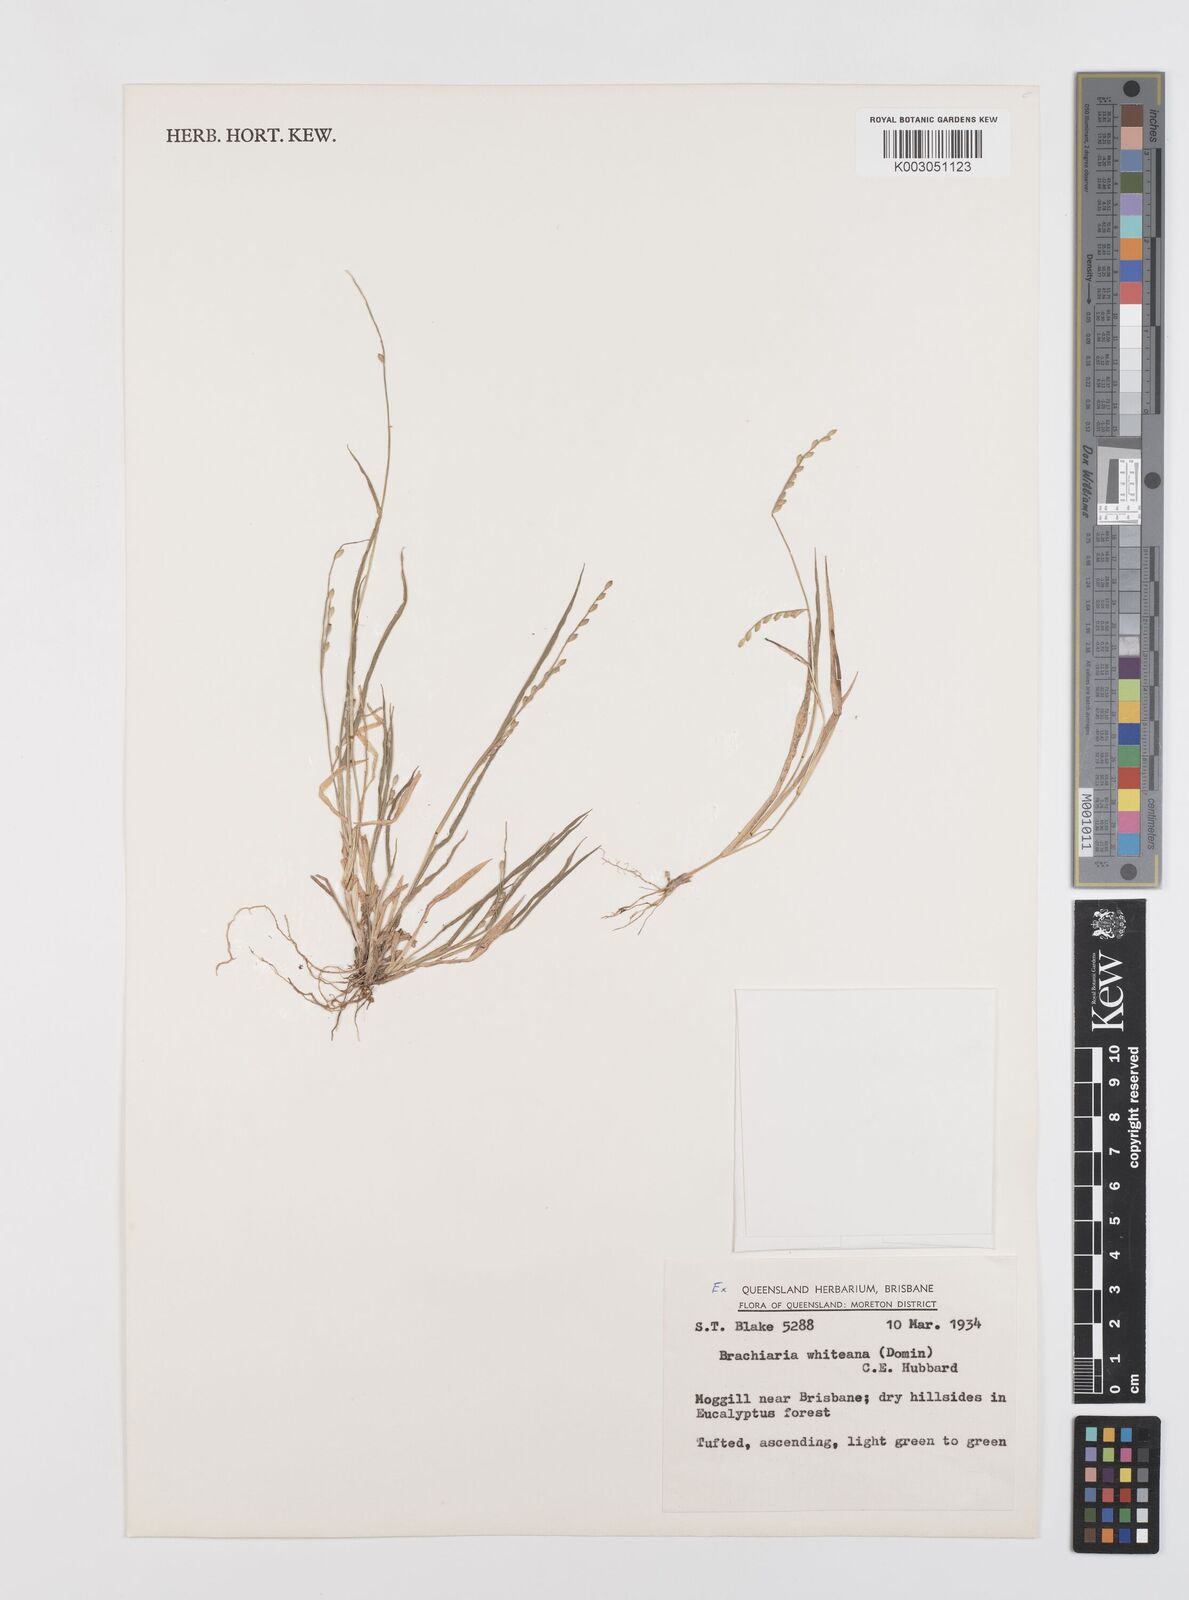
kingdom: Plantae
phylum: Tracheophyta
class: Liliopsida
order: Poales
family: Poaceae
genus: Urochloa
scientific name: Urochloa whiteana
